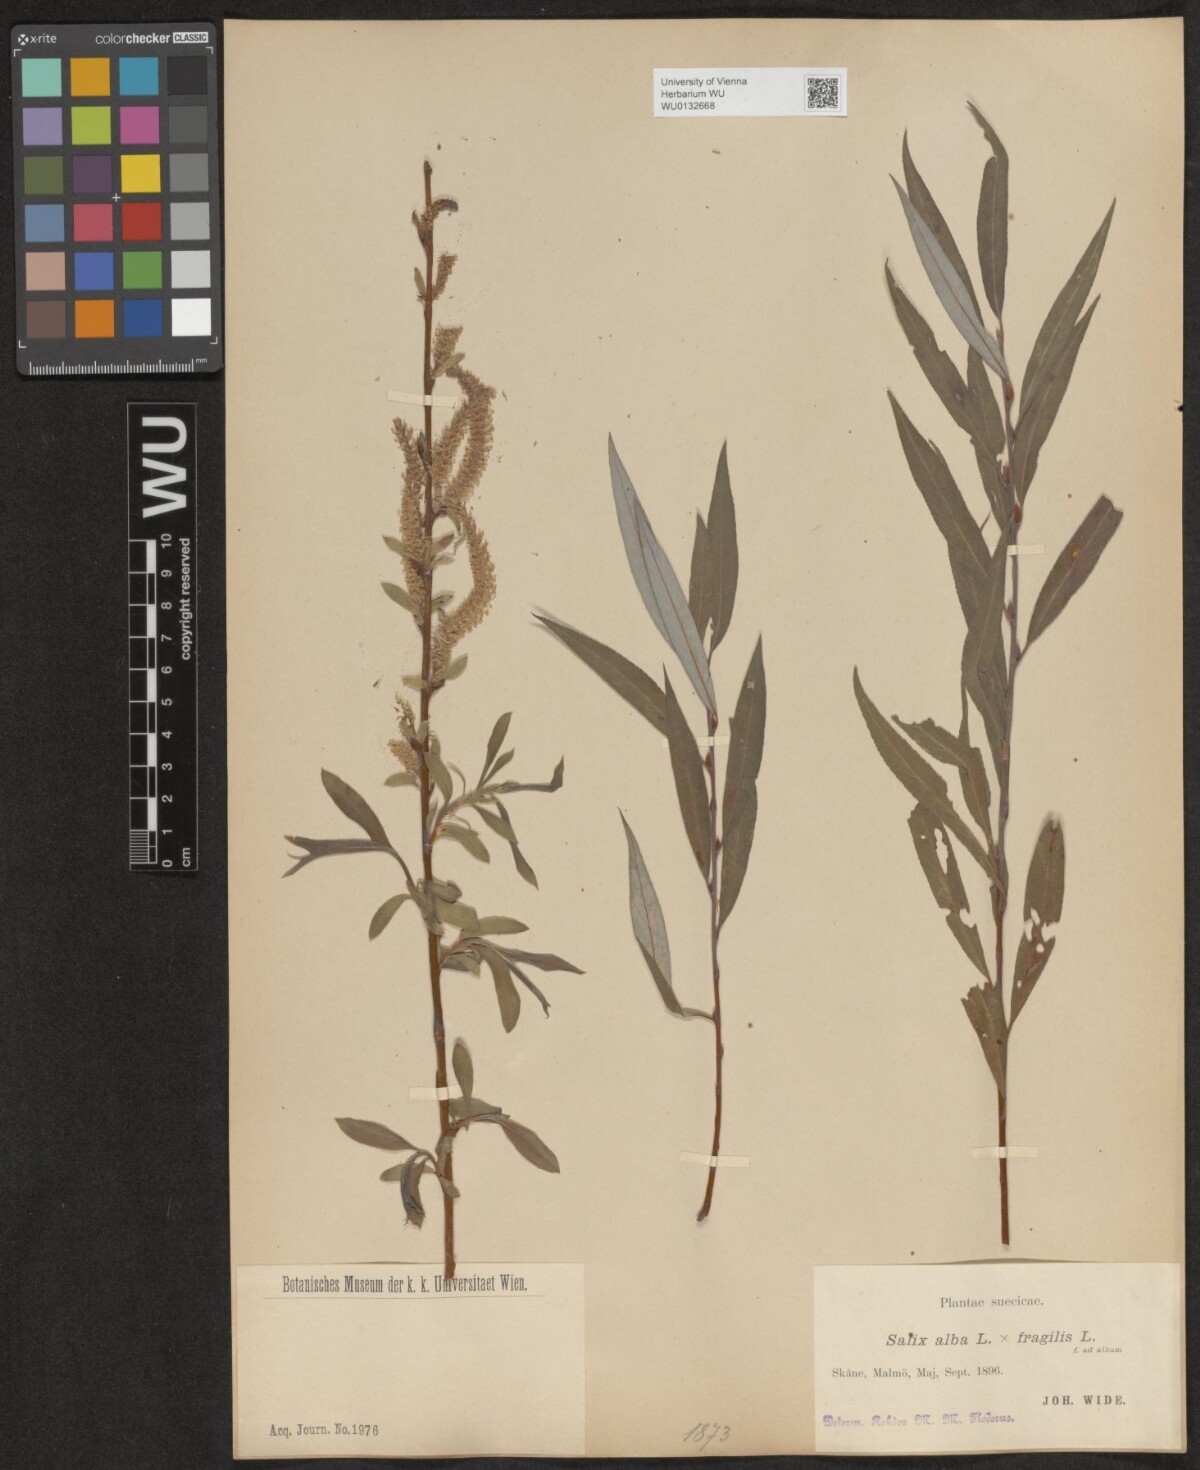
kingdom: Plantae
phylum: Tracheophyta
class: Magnoliopsida
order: Malpighiales
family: Salicaceae
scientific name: Salicaceae
